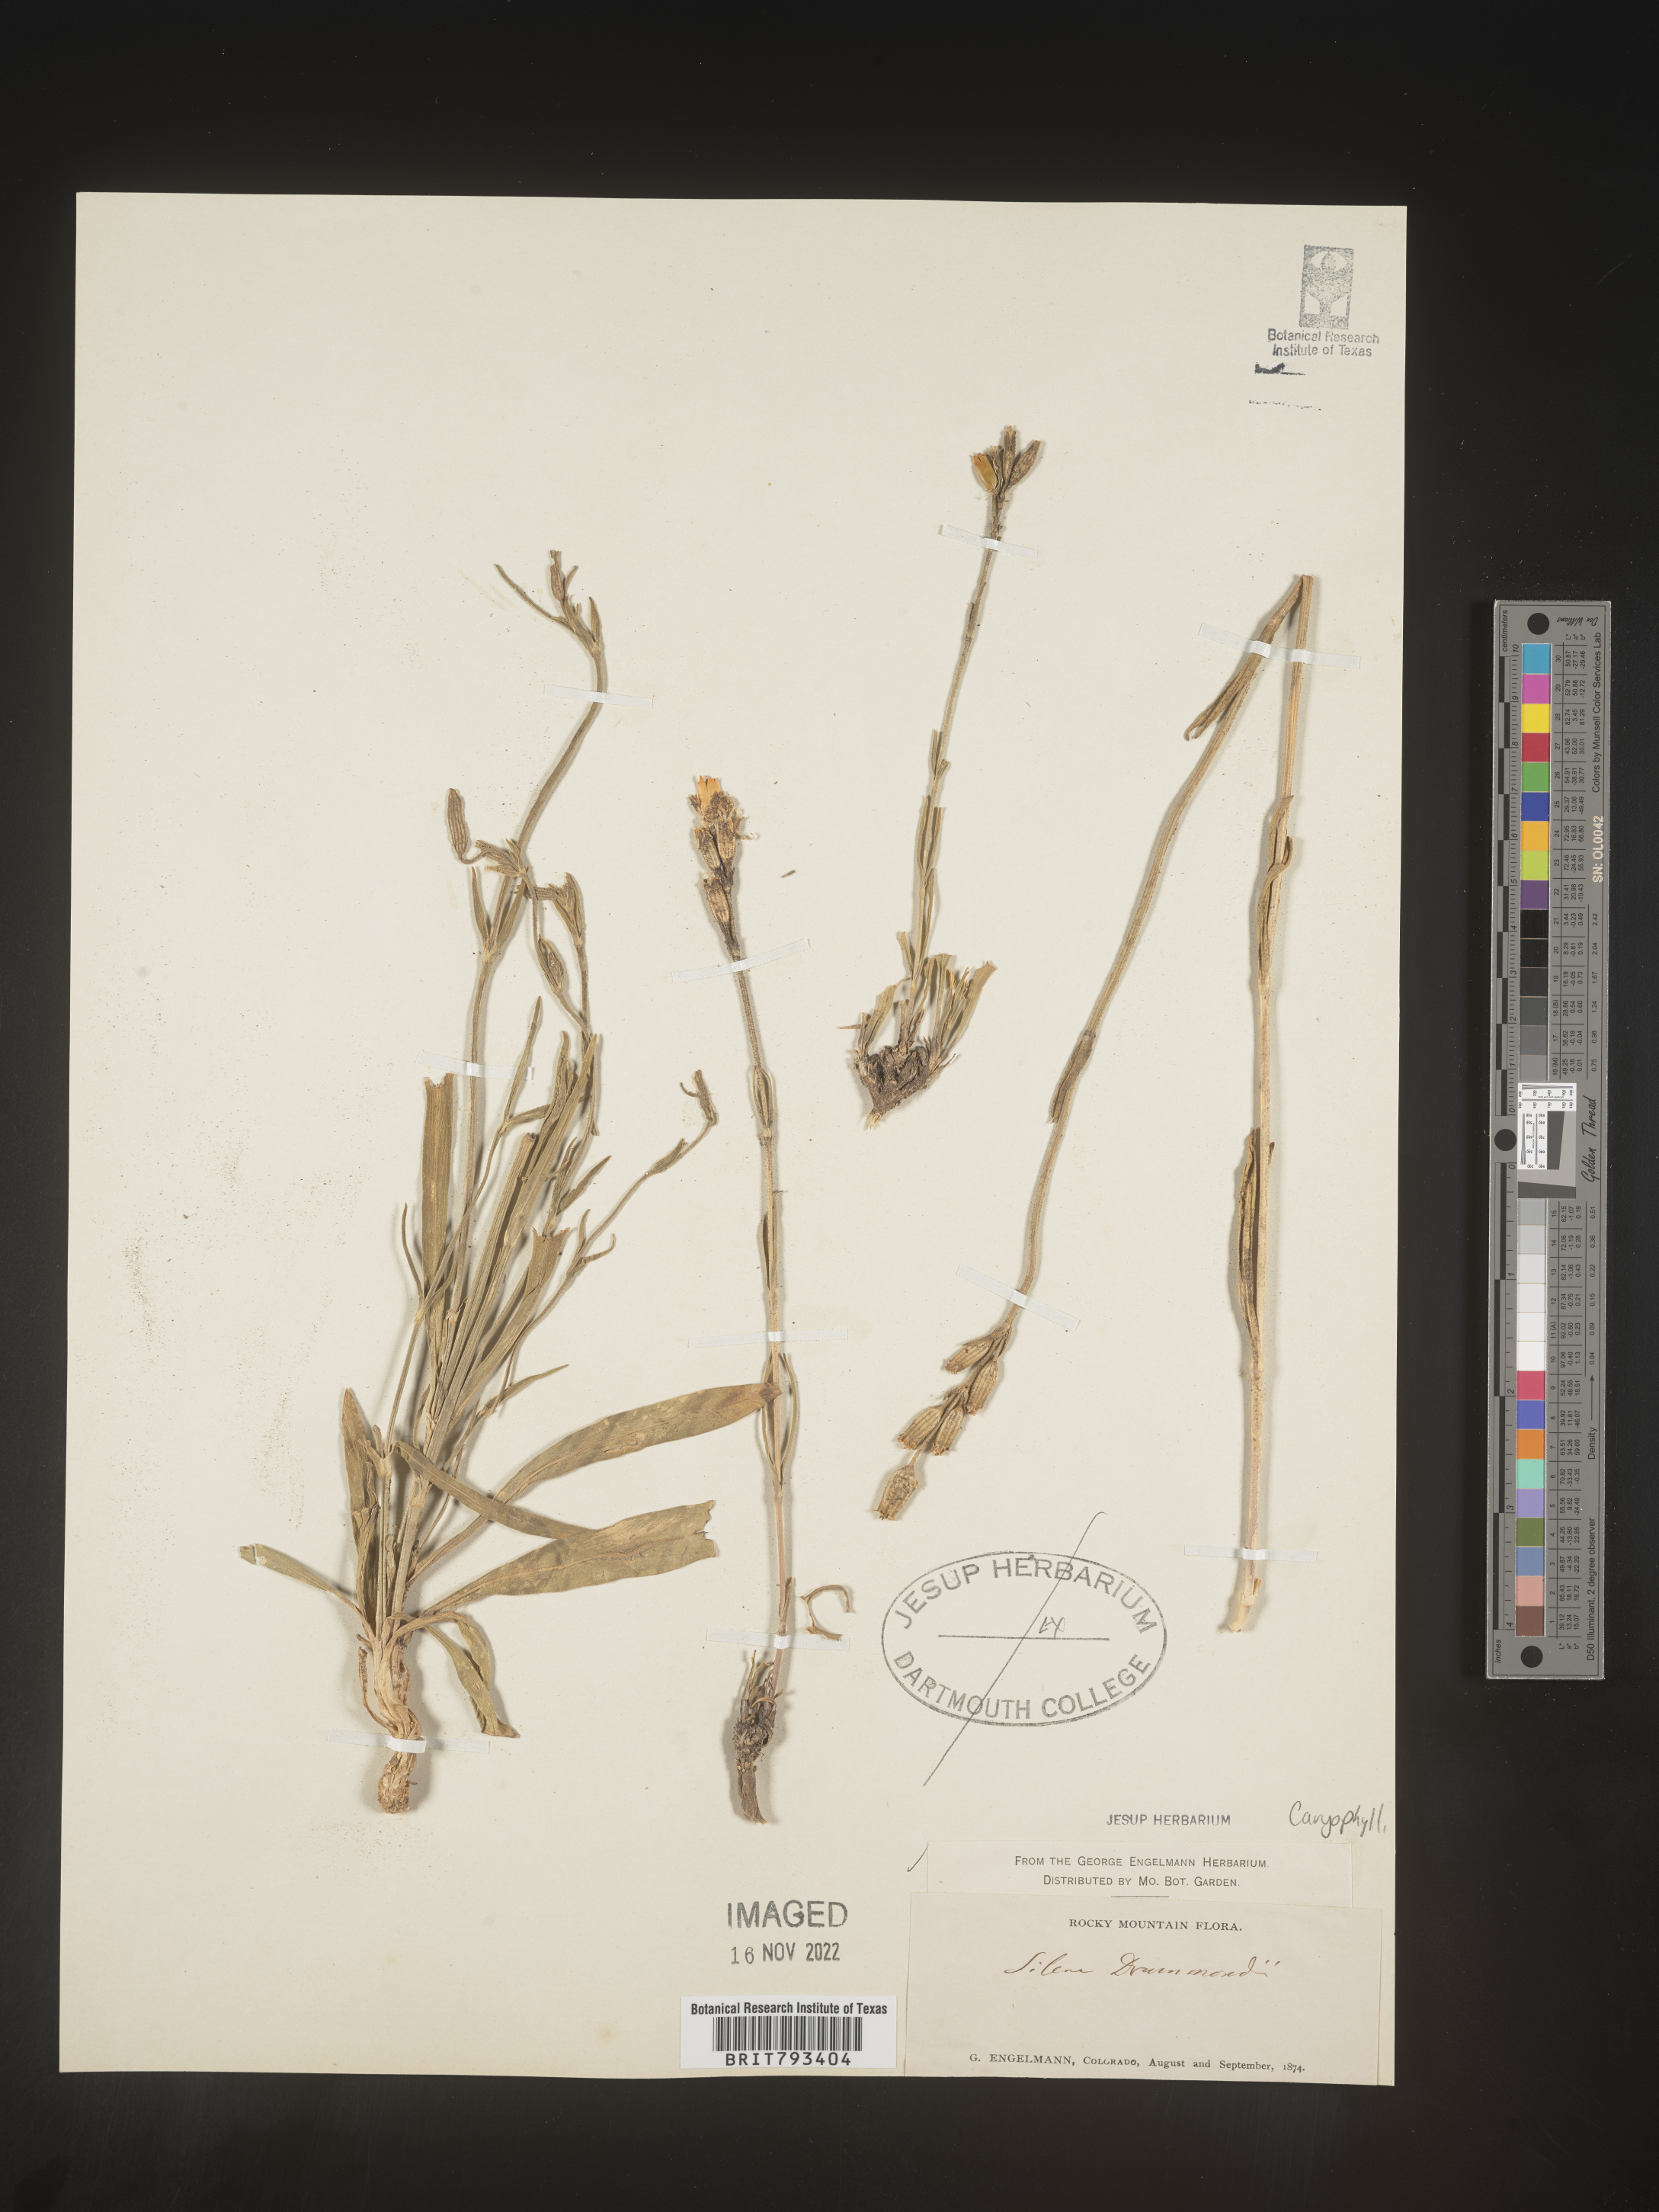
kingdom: Plantae
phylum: Tracheophyta
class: Magnoliopsida
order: Caryophyllales
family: Caryophyllaceae
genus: Silene
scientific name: Silene drummondii
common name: Drummond's catchfly
